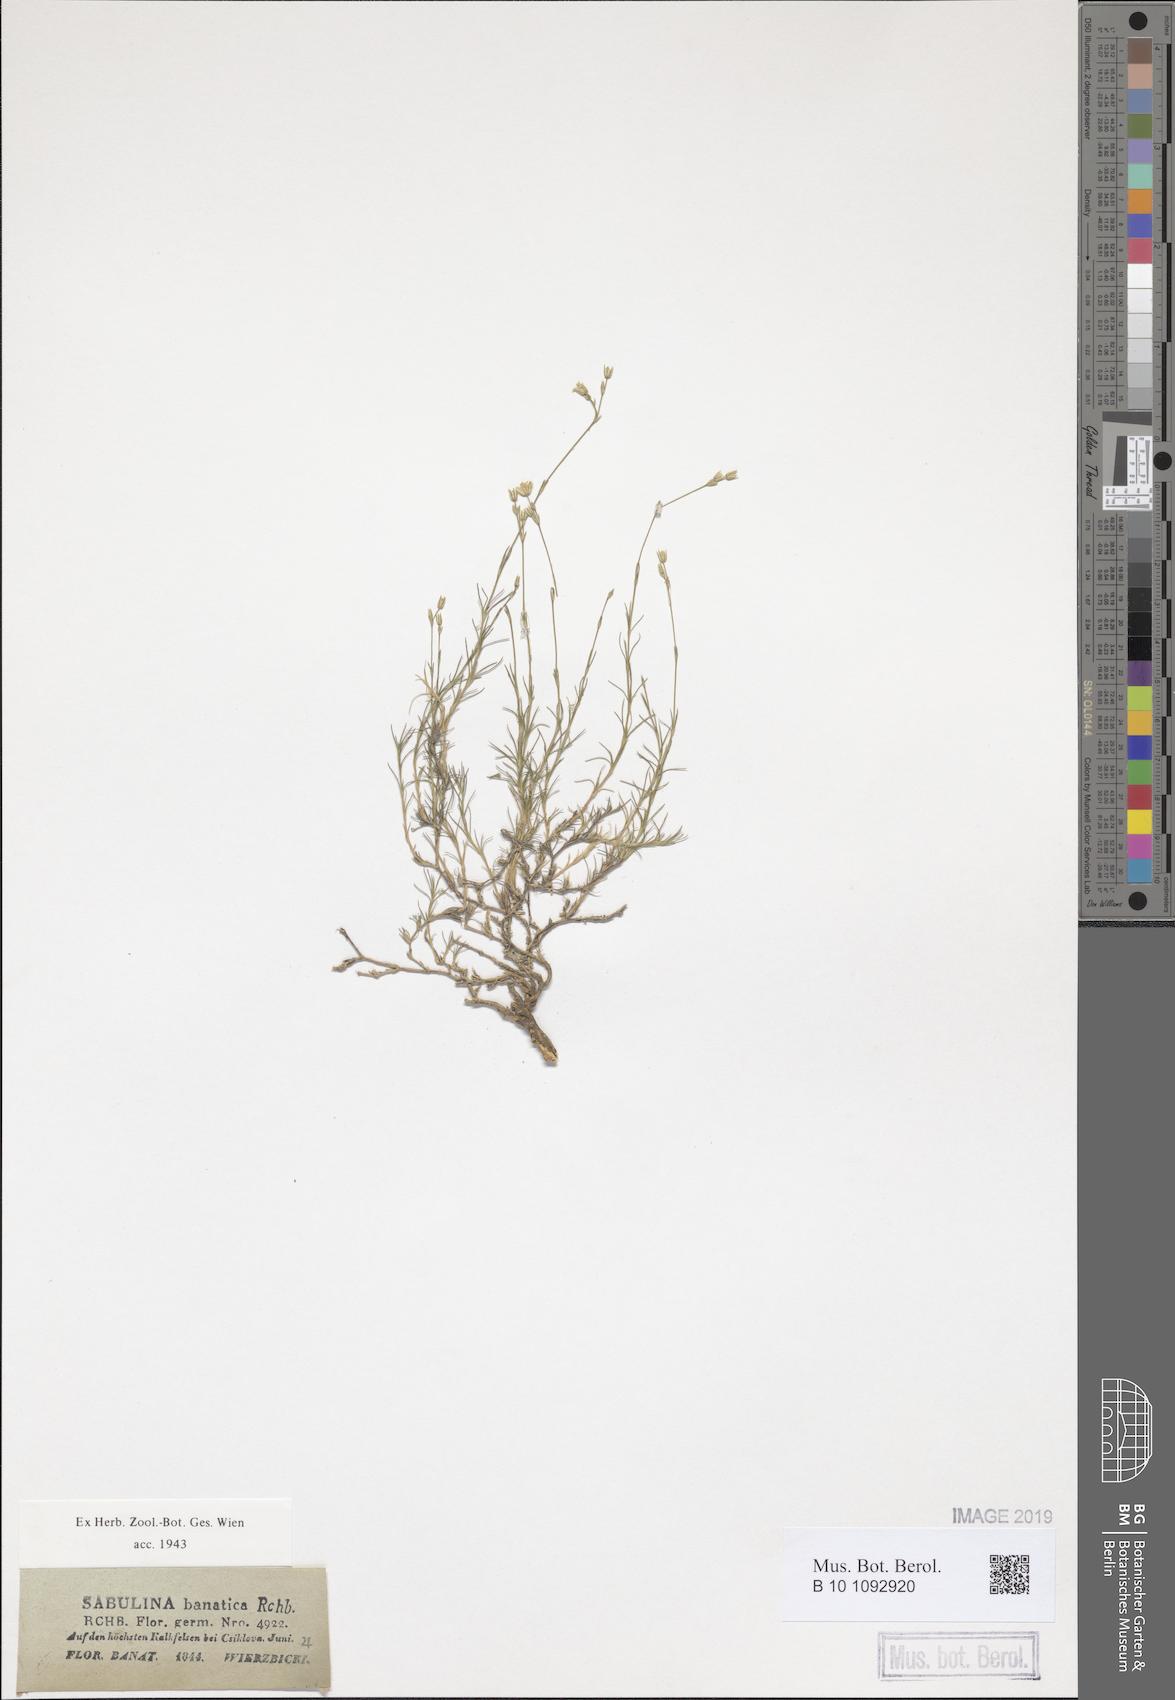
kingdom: Plantae
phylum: Tracheophyta
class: Magnoliopsida
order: Caryophyllales
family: Caryophyllaceae
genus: Minuartia
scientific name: Minuartia setacea
